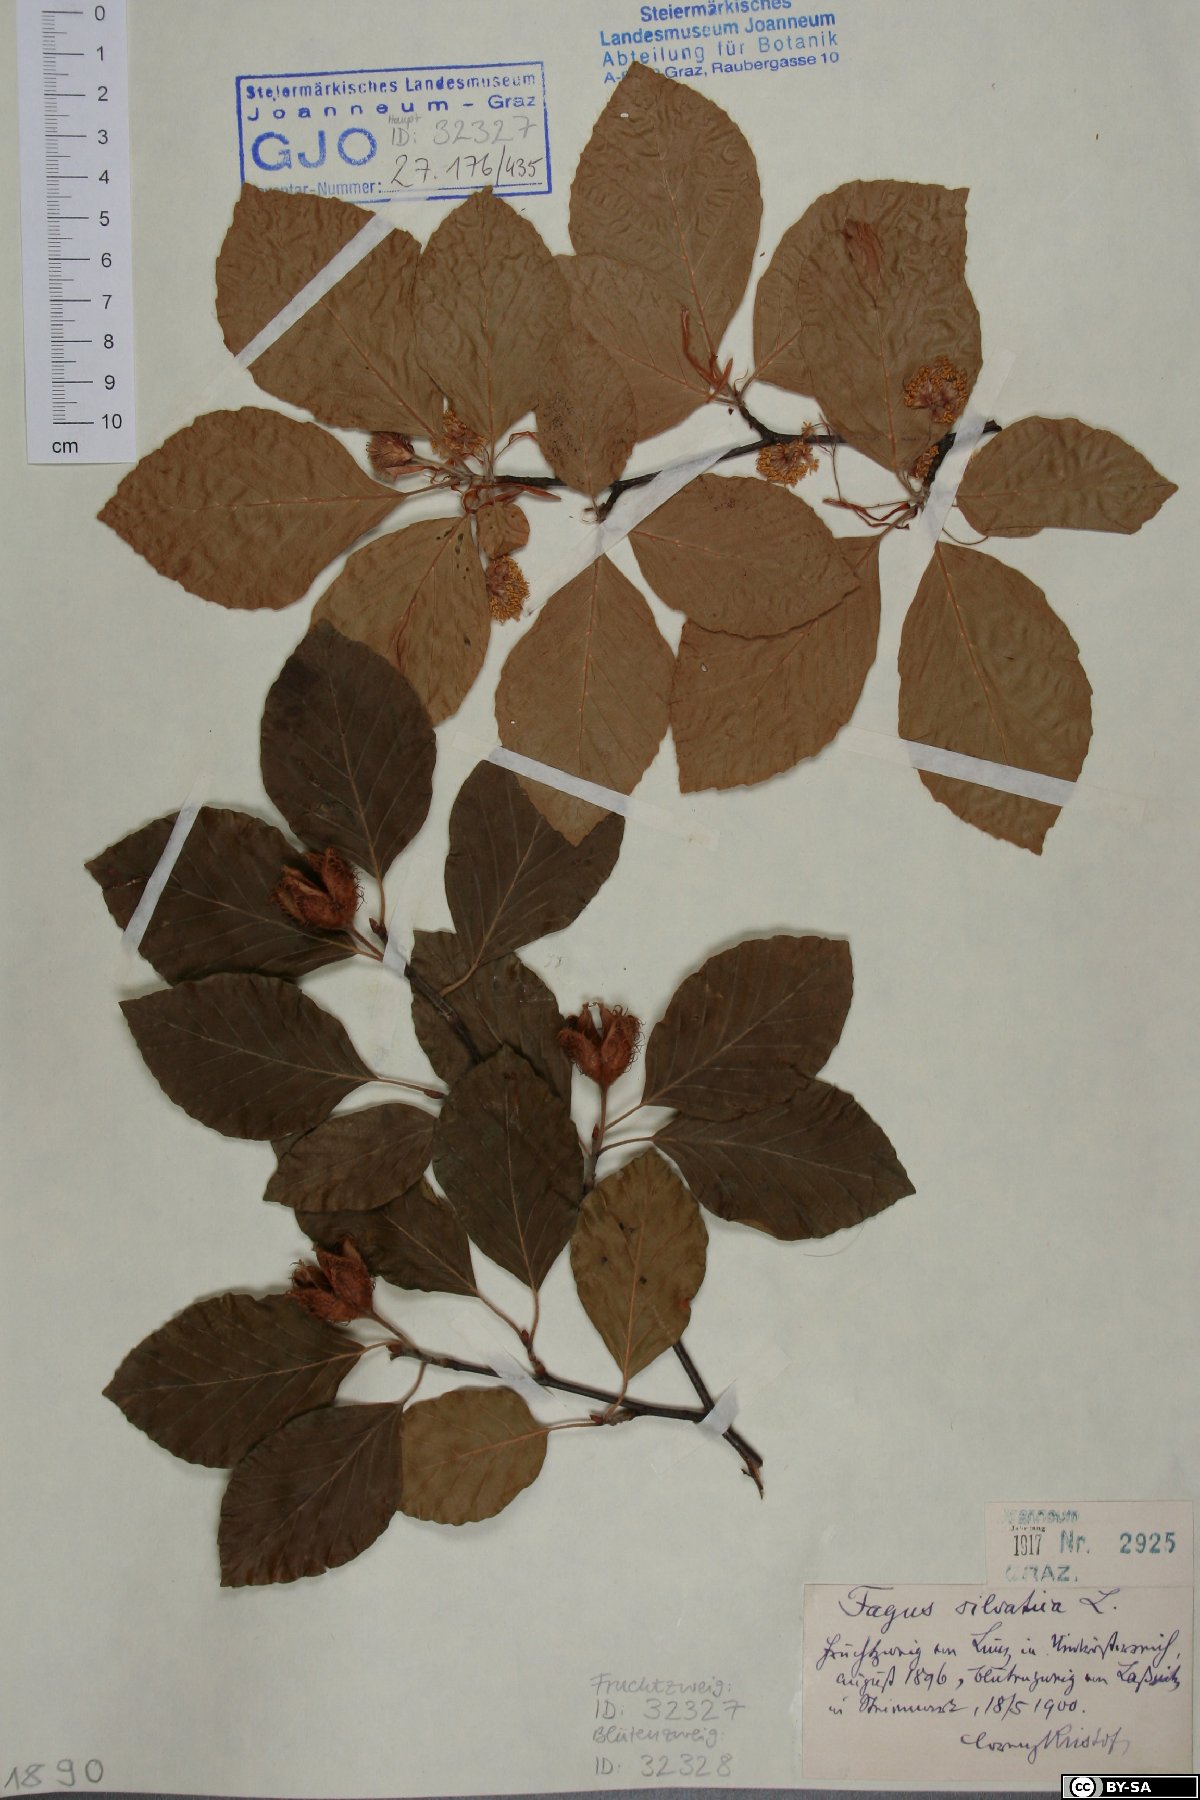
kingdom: Plantae
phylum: Tracheophyta
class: Magnoliopsida
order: Fagales
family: Fagaceae
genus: Fagus
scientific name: Fagus sylvatica
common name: Beech
